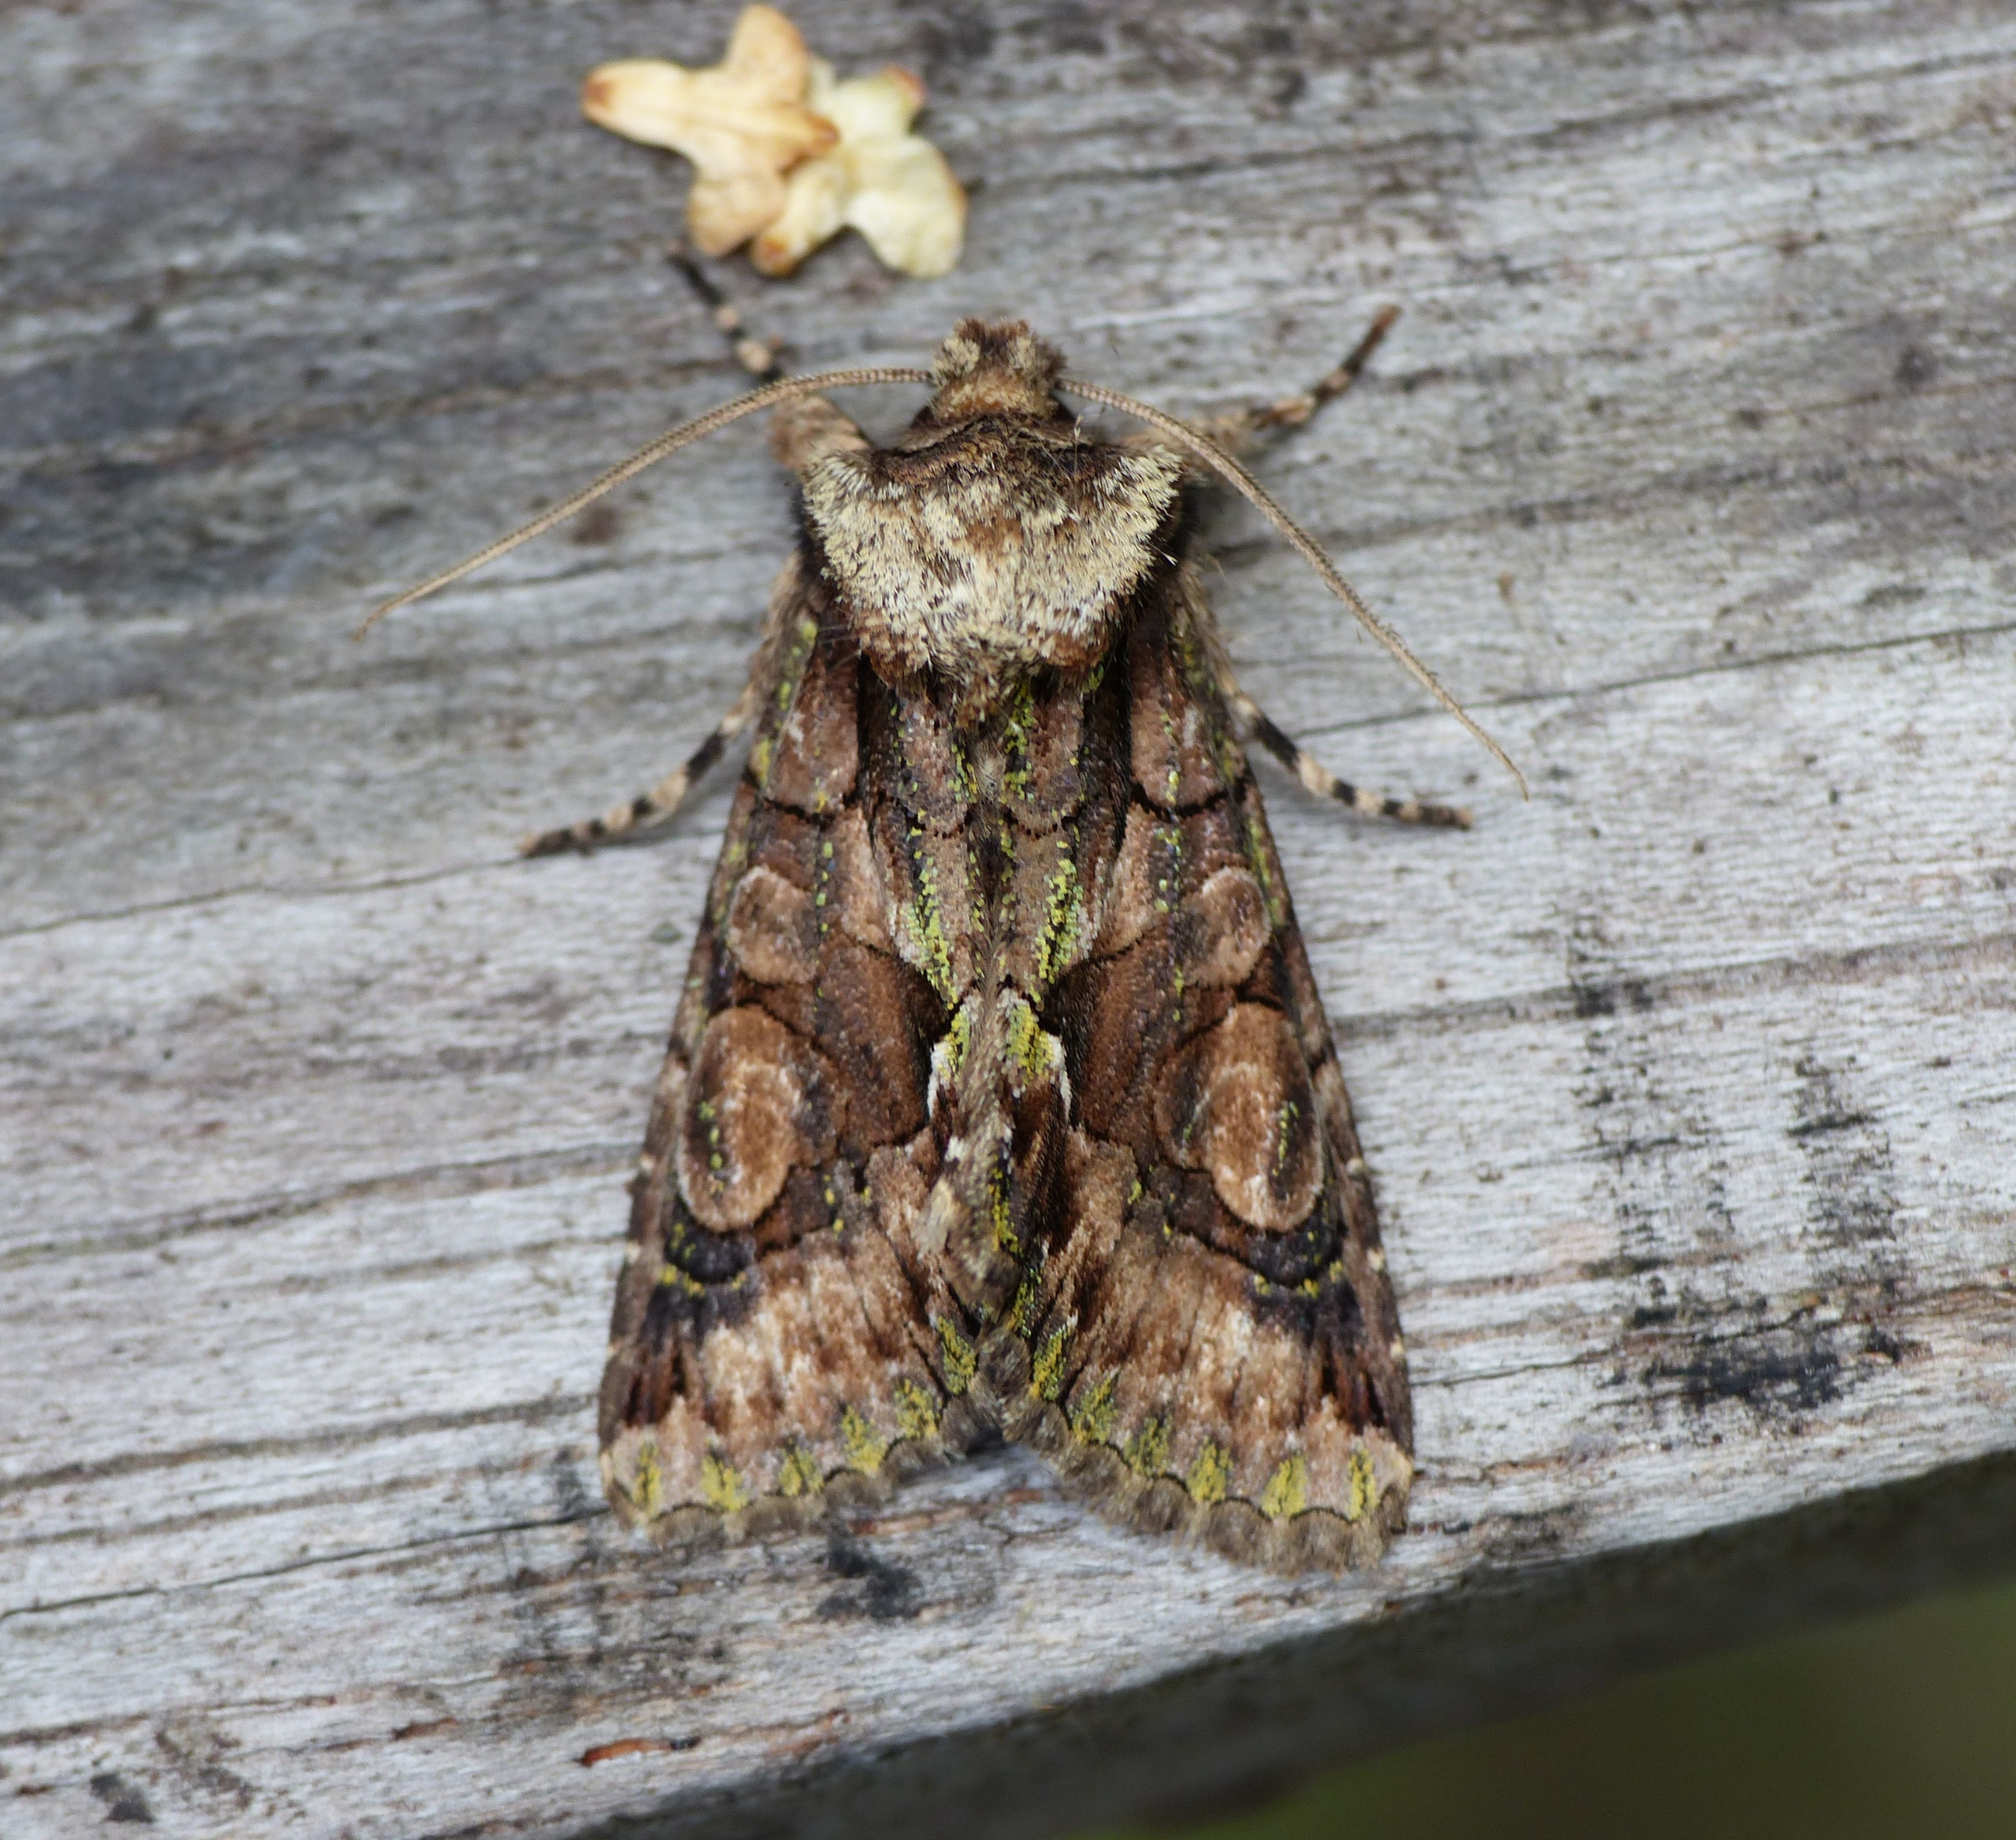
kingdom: Animalia
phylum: Arthropoda
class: Insecta
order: Lepidoptera
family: Noctuidae
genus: Allophyes
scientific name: Allophyes oxyacanthae
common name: Tjørneugle
